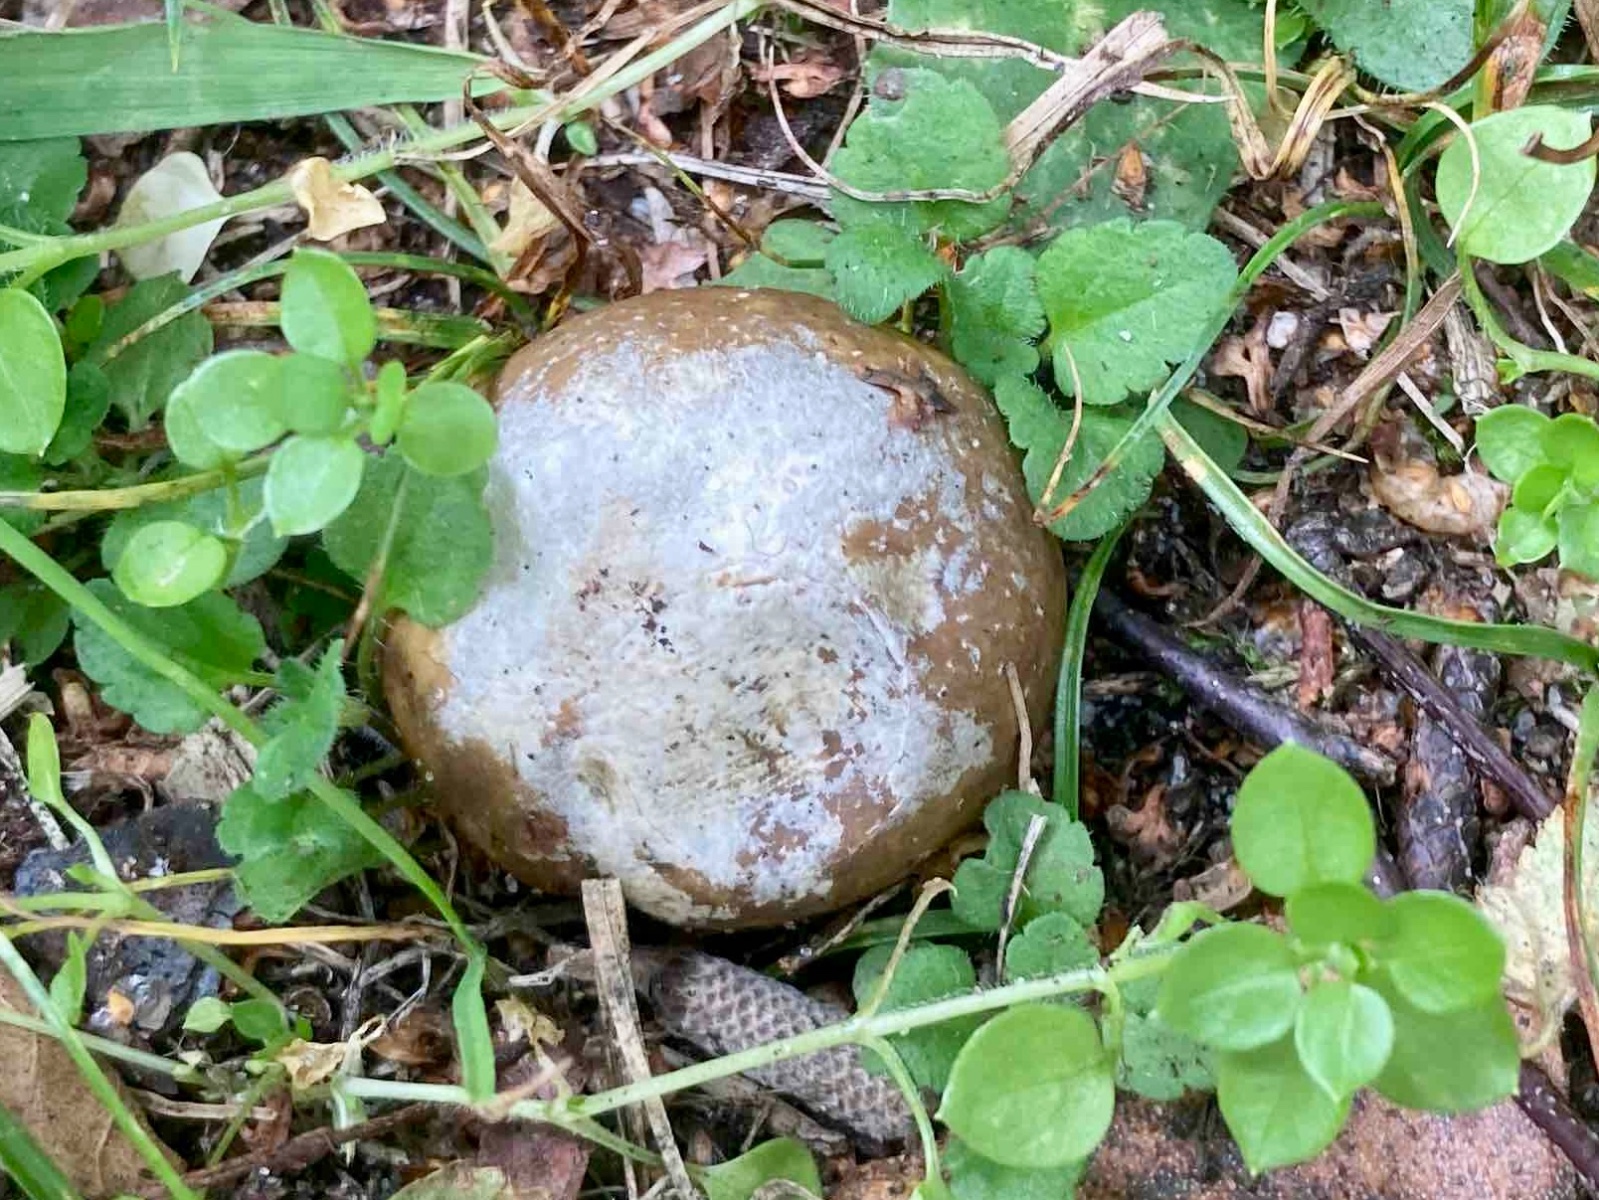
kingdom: Fungi
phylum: Basidiomycota
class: Agaricomycetes
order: Agaricales
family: Lycoperdaceae
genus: Bovista
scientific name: Bovista plumbea
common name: blygrå bovist
